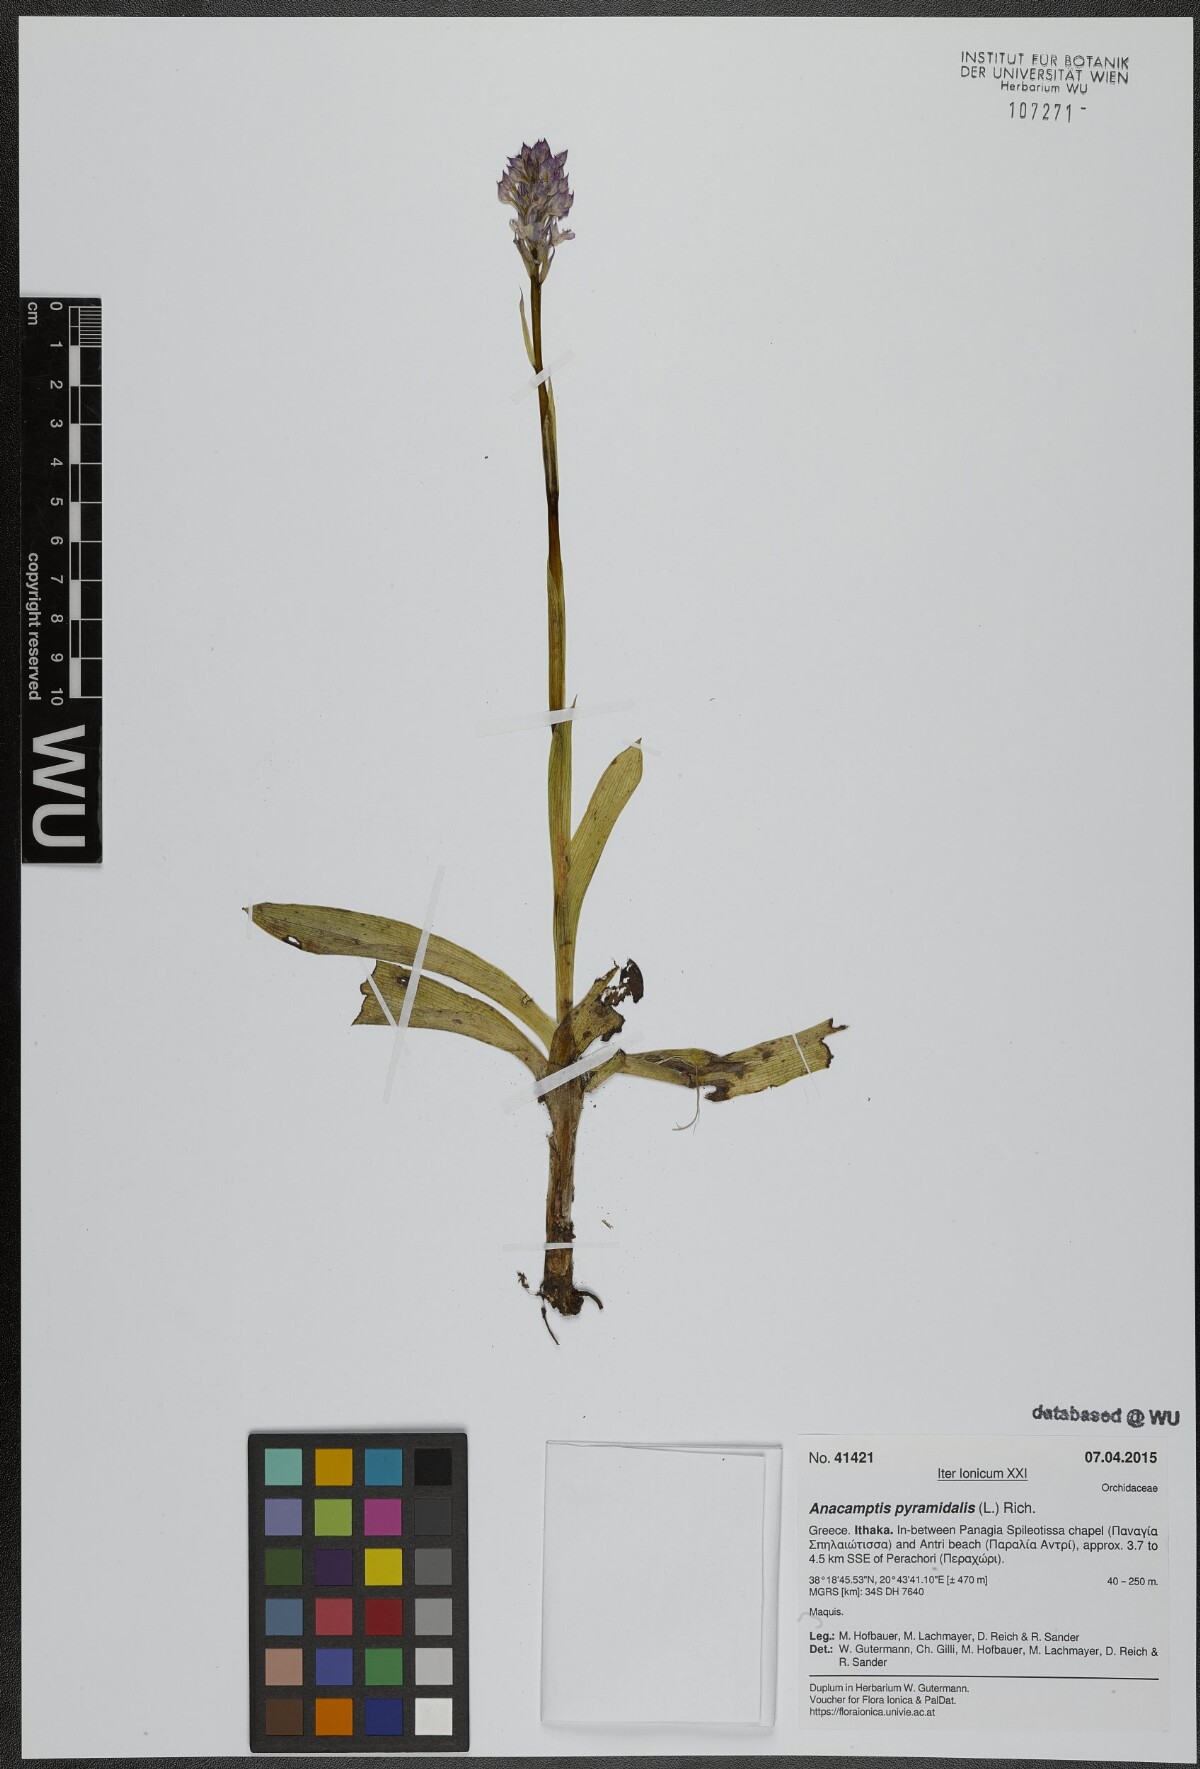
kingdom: Plantae
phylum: Tracheophyta
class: Liliopsida
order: Asparagales
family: Orchidaceae
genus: Anacamptis
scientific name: Anacamptis pyramidalis
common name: Pyramidal orchid
